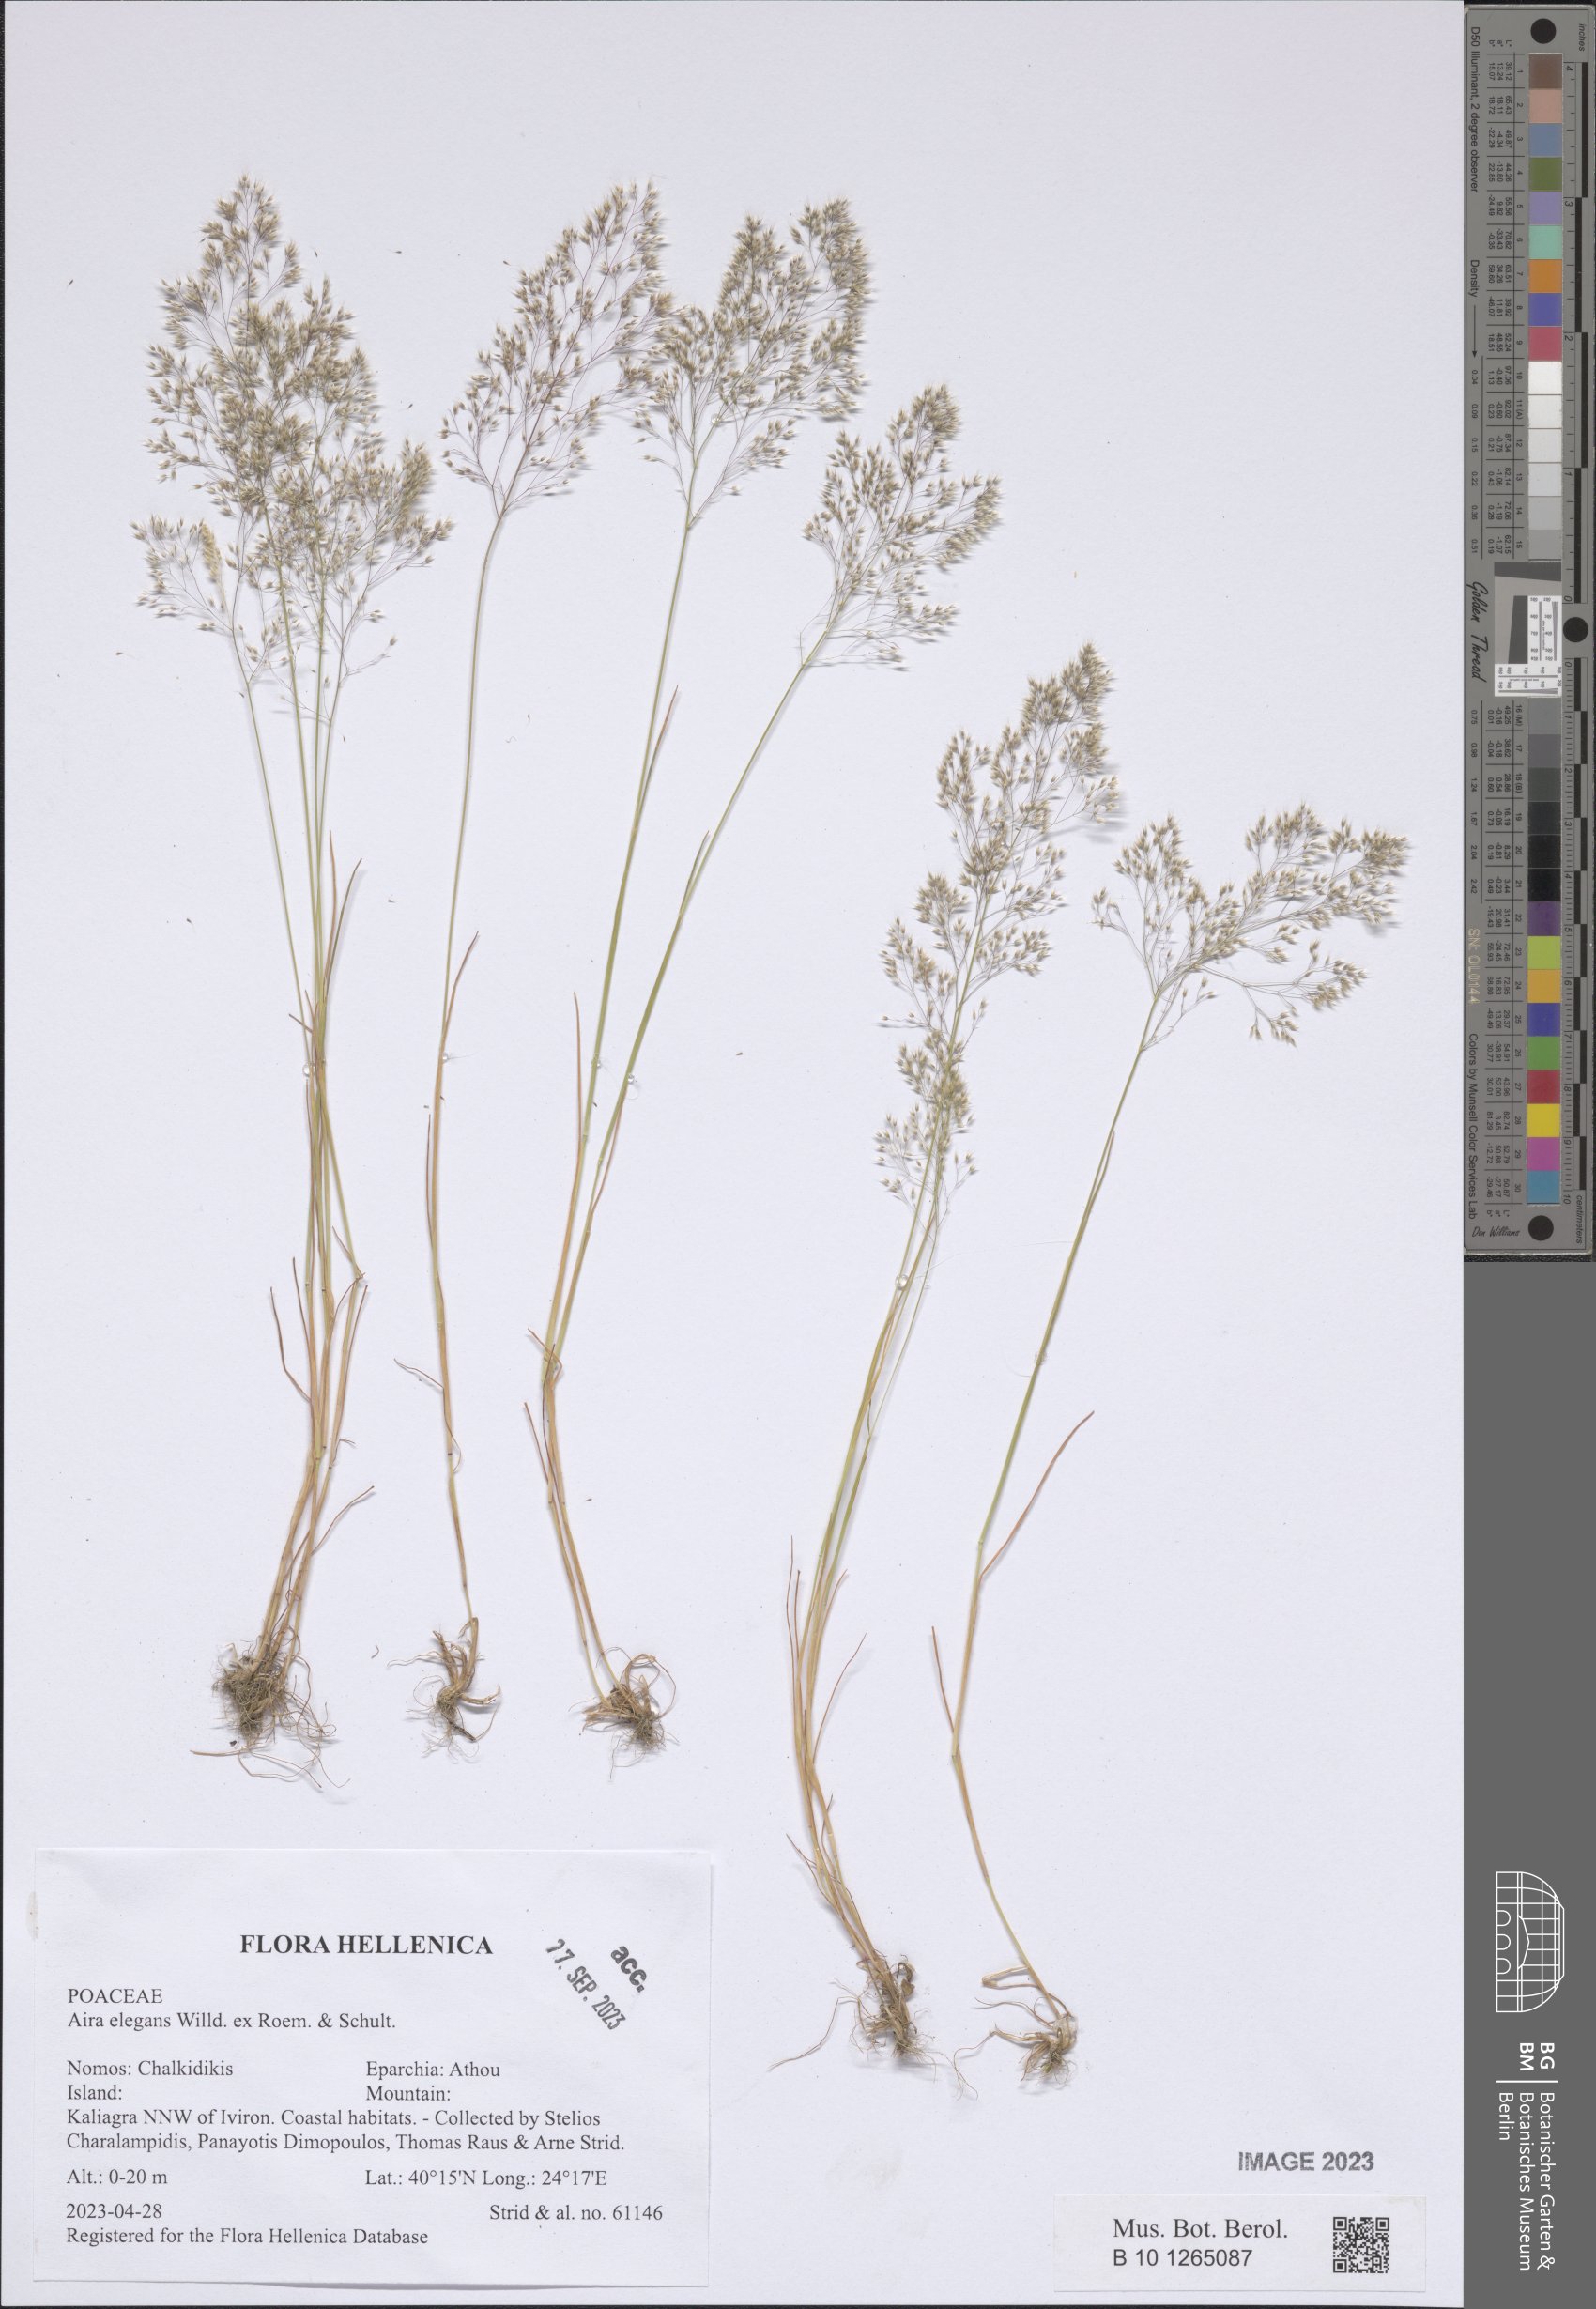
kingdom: Plantae
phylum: Tracheophyta
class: Liliopsida
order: Poales
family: Poaceae
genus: Aira
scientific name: Aira elegans
